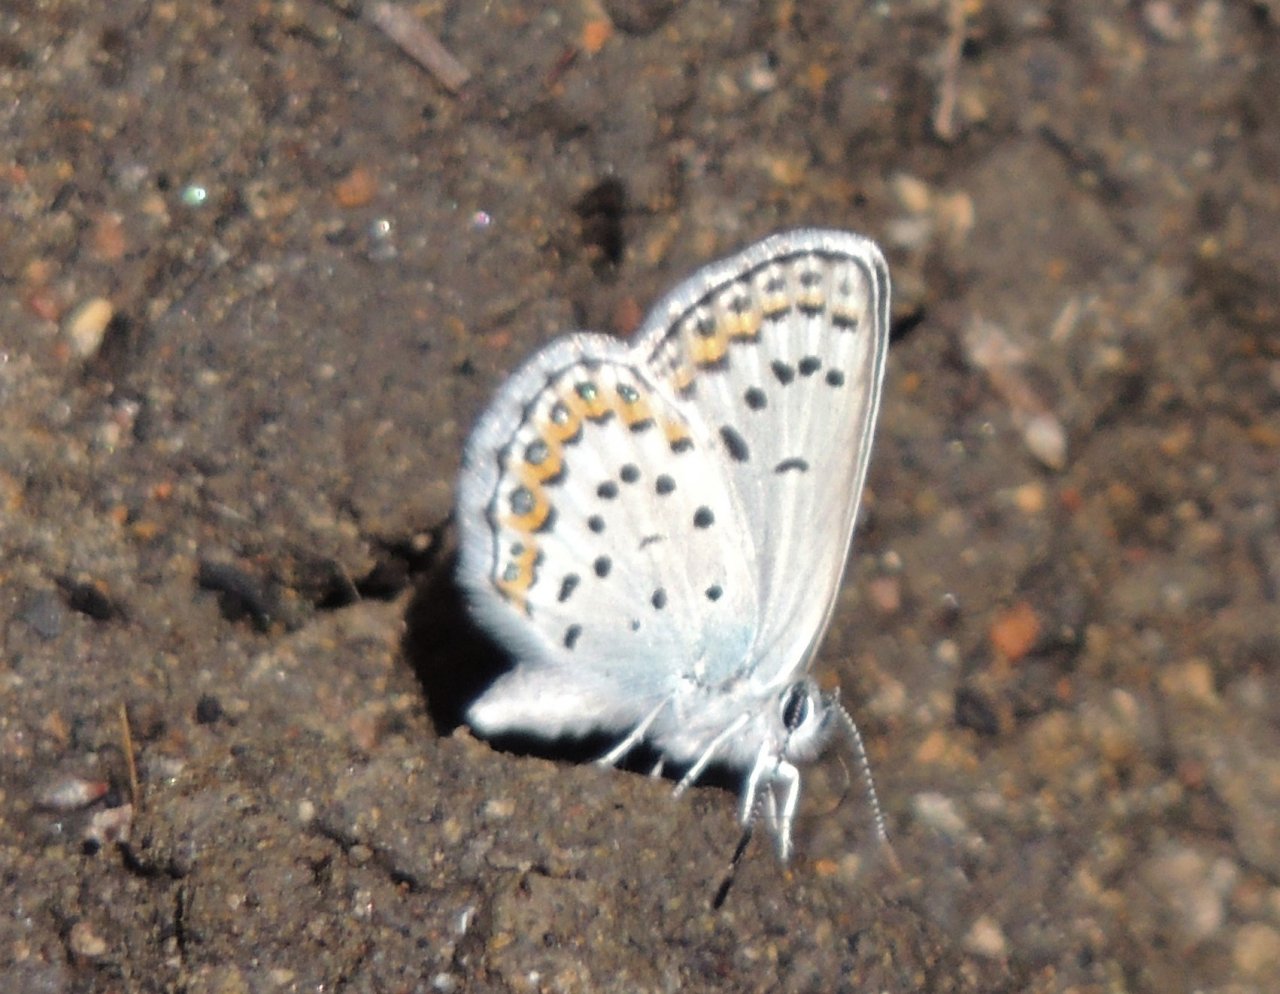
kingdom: Animalia
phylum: Arthropoda
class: Insecta
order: Lepidoptera
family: Lycaenidae
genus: Lycaeides
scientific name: Lycaeides melissa
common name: Melissa Blue
